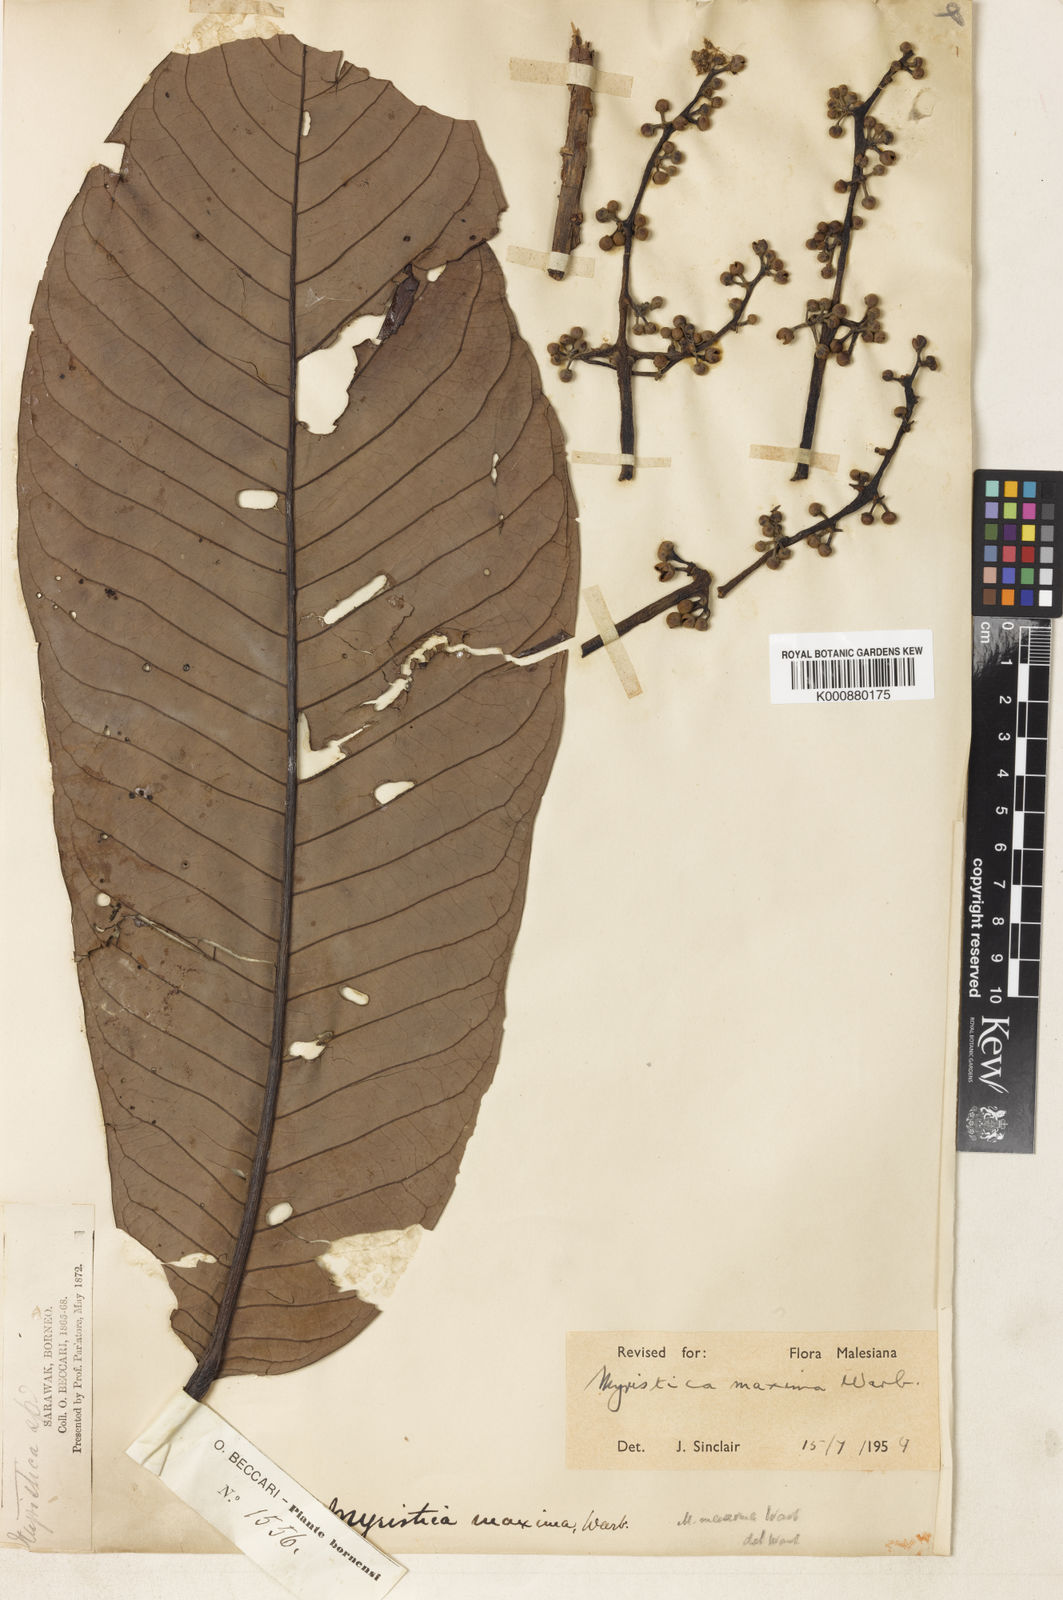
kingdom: Plantae
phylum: Tracheophyta
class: Magnoliopsida
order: Magnoliales
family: Myristicaceae
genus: Myristica
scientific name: Myristica maxima
